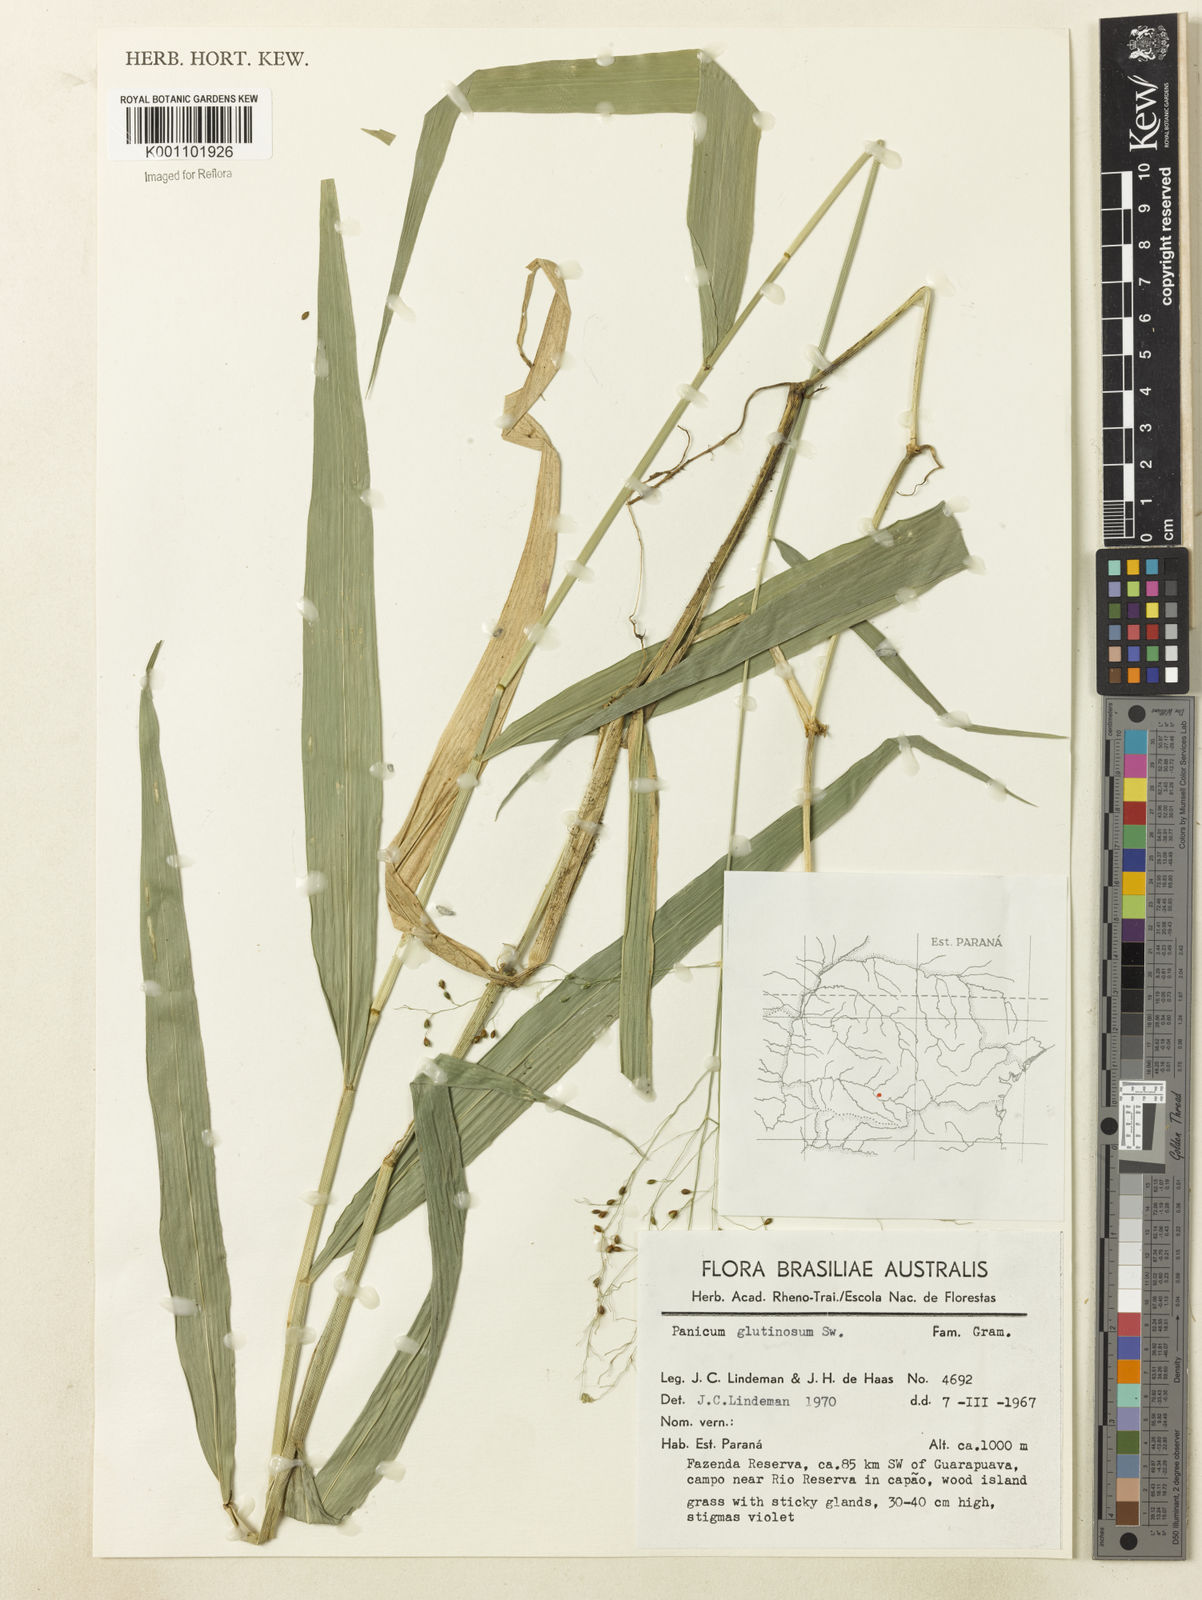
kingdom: Plantae
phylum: Tracheophyta
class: Liliopsida
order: Poales
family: Poaceae
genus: Homolepis
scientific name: Homolepis glutinosa
